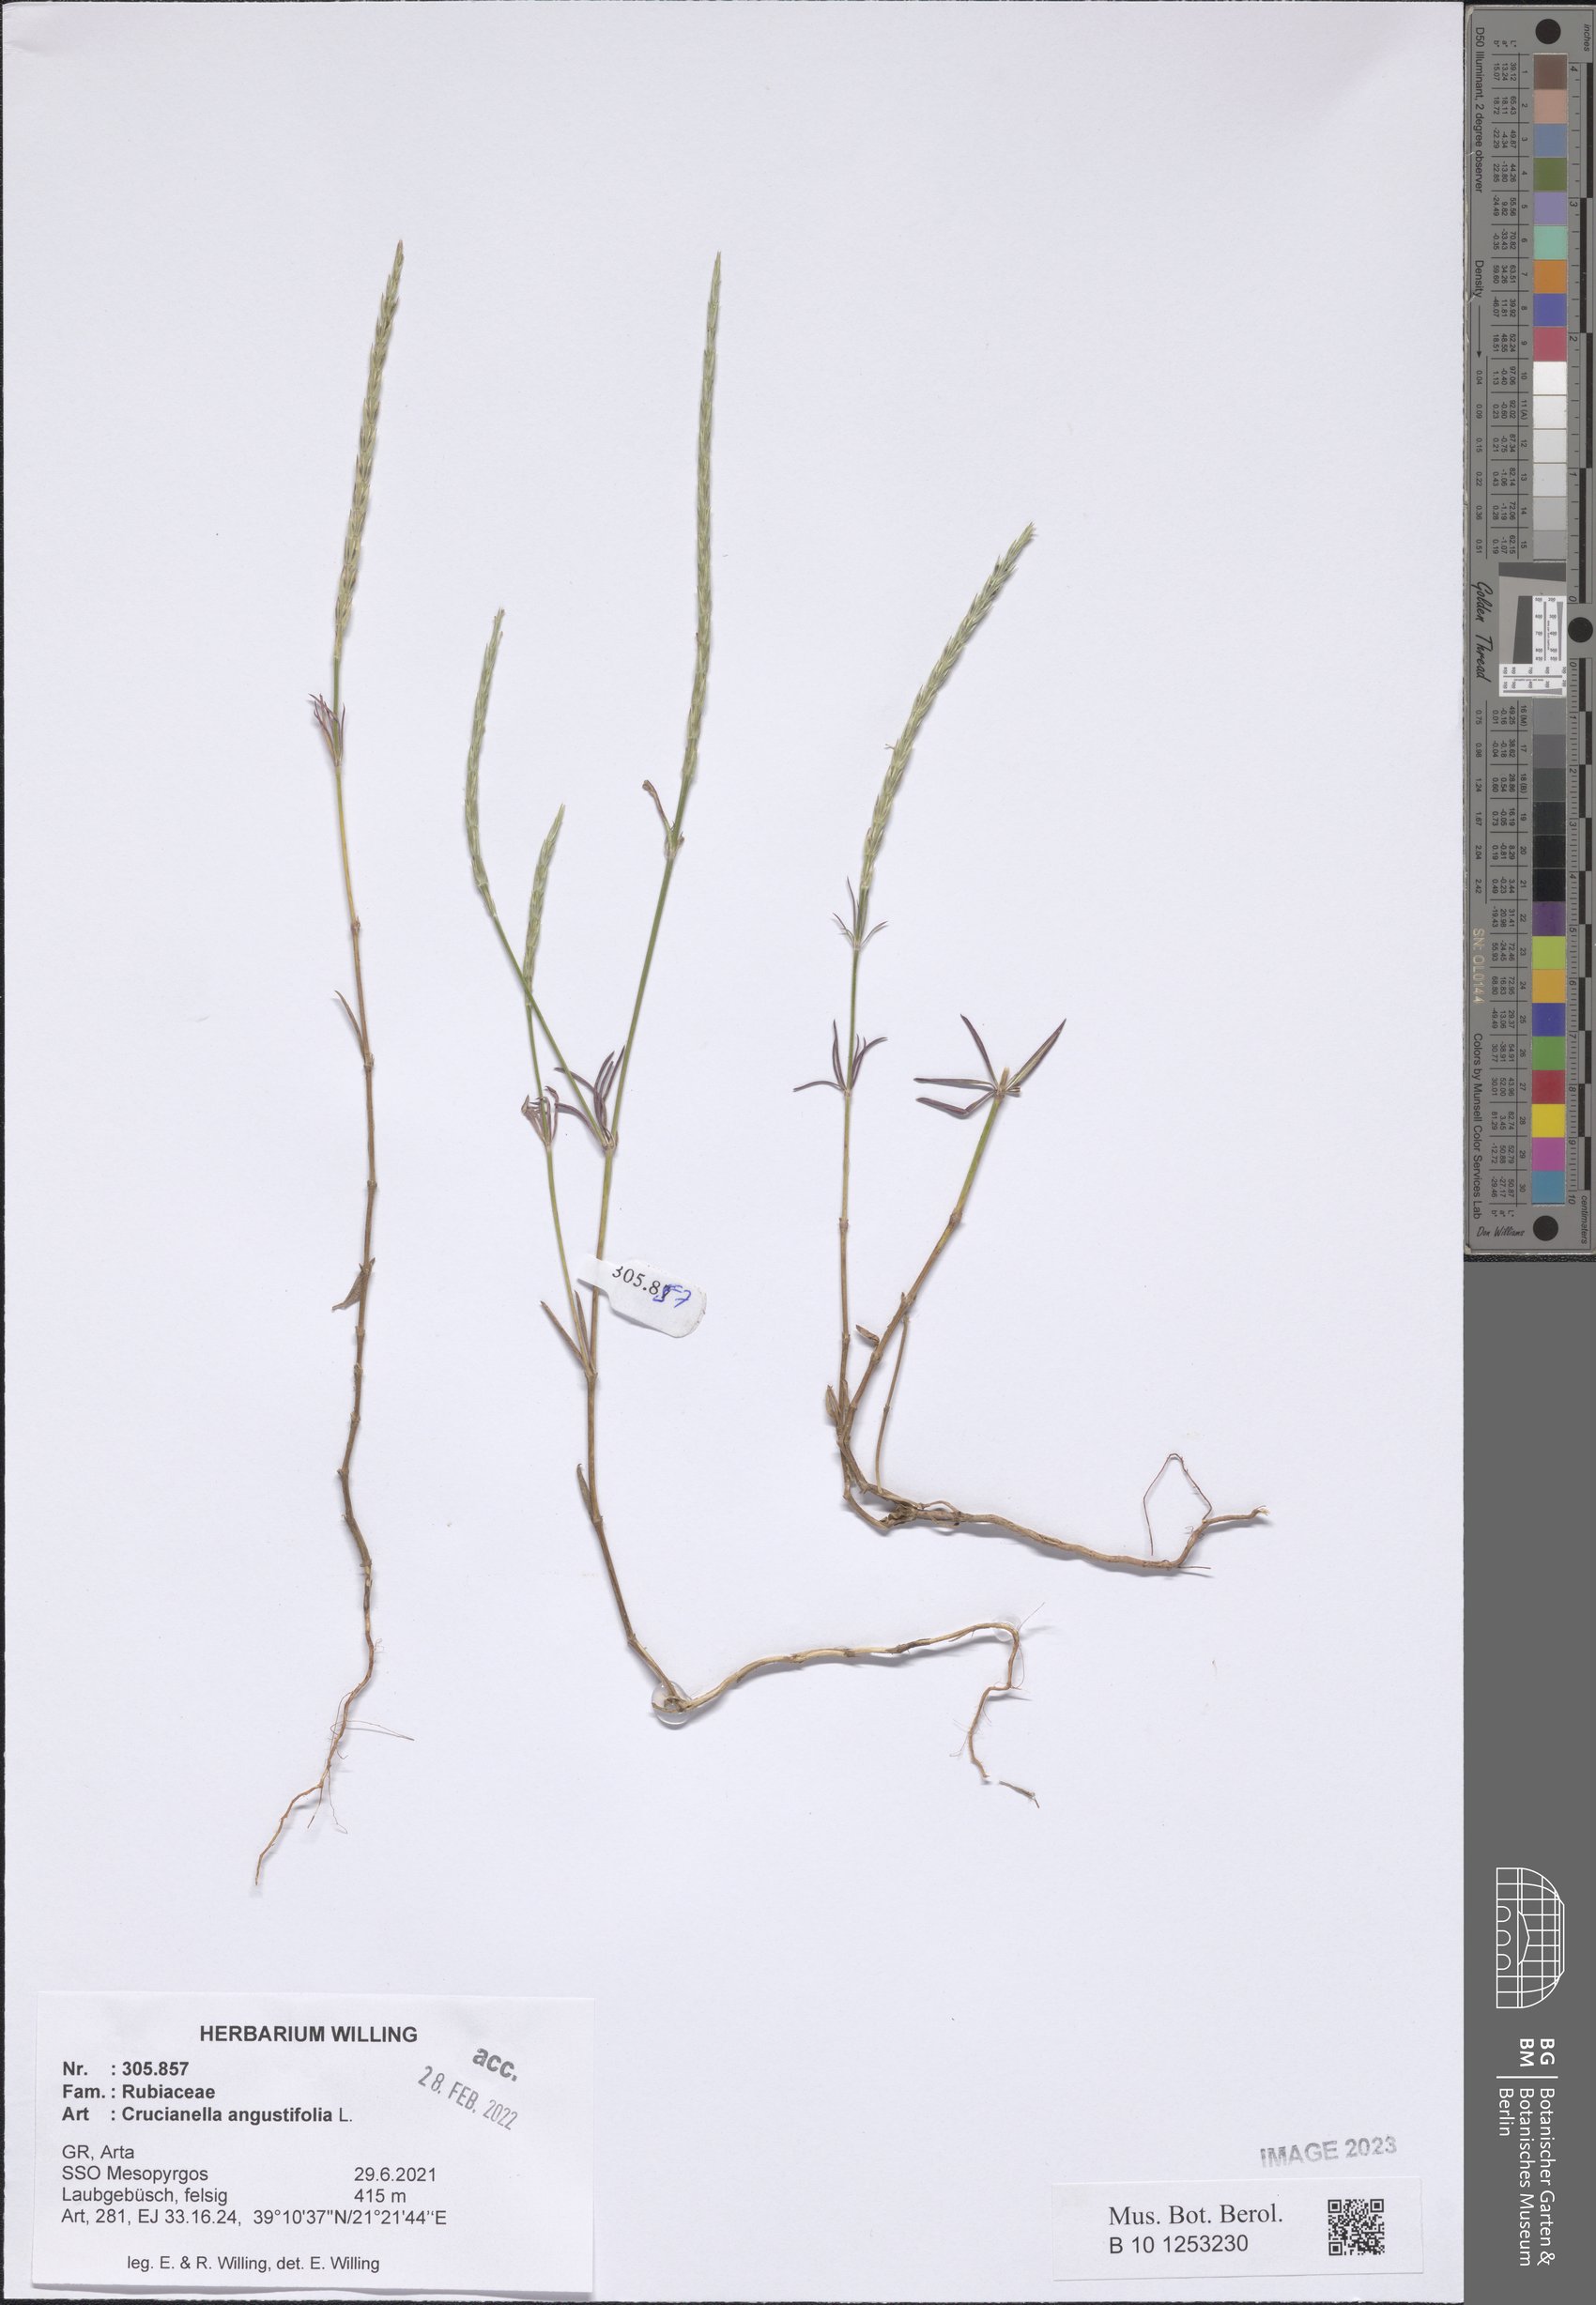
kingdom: Plantae
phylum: Tracheophyta
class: Magnoliopsida
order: Gentianales
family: Rubiaceae
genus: Crucianella
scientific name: Crucianella angustifolia
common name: Narrowleaf crucianella
